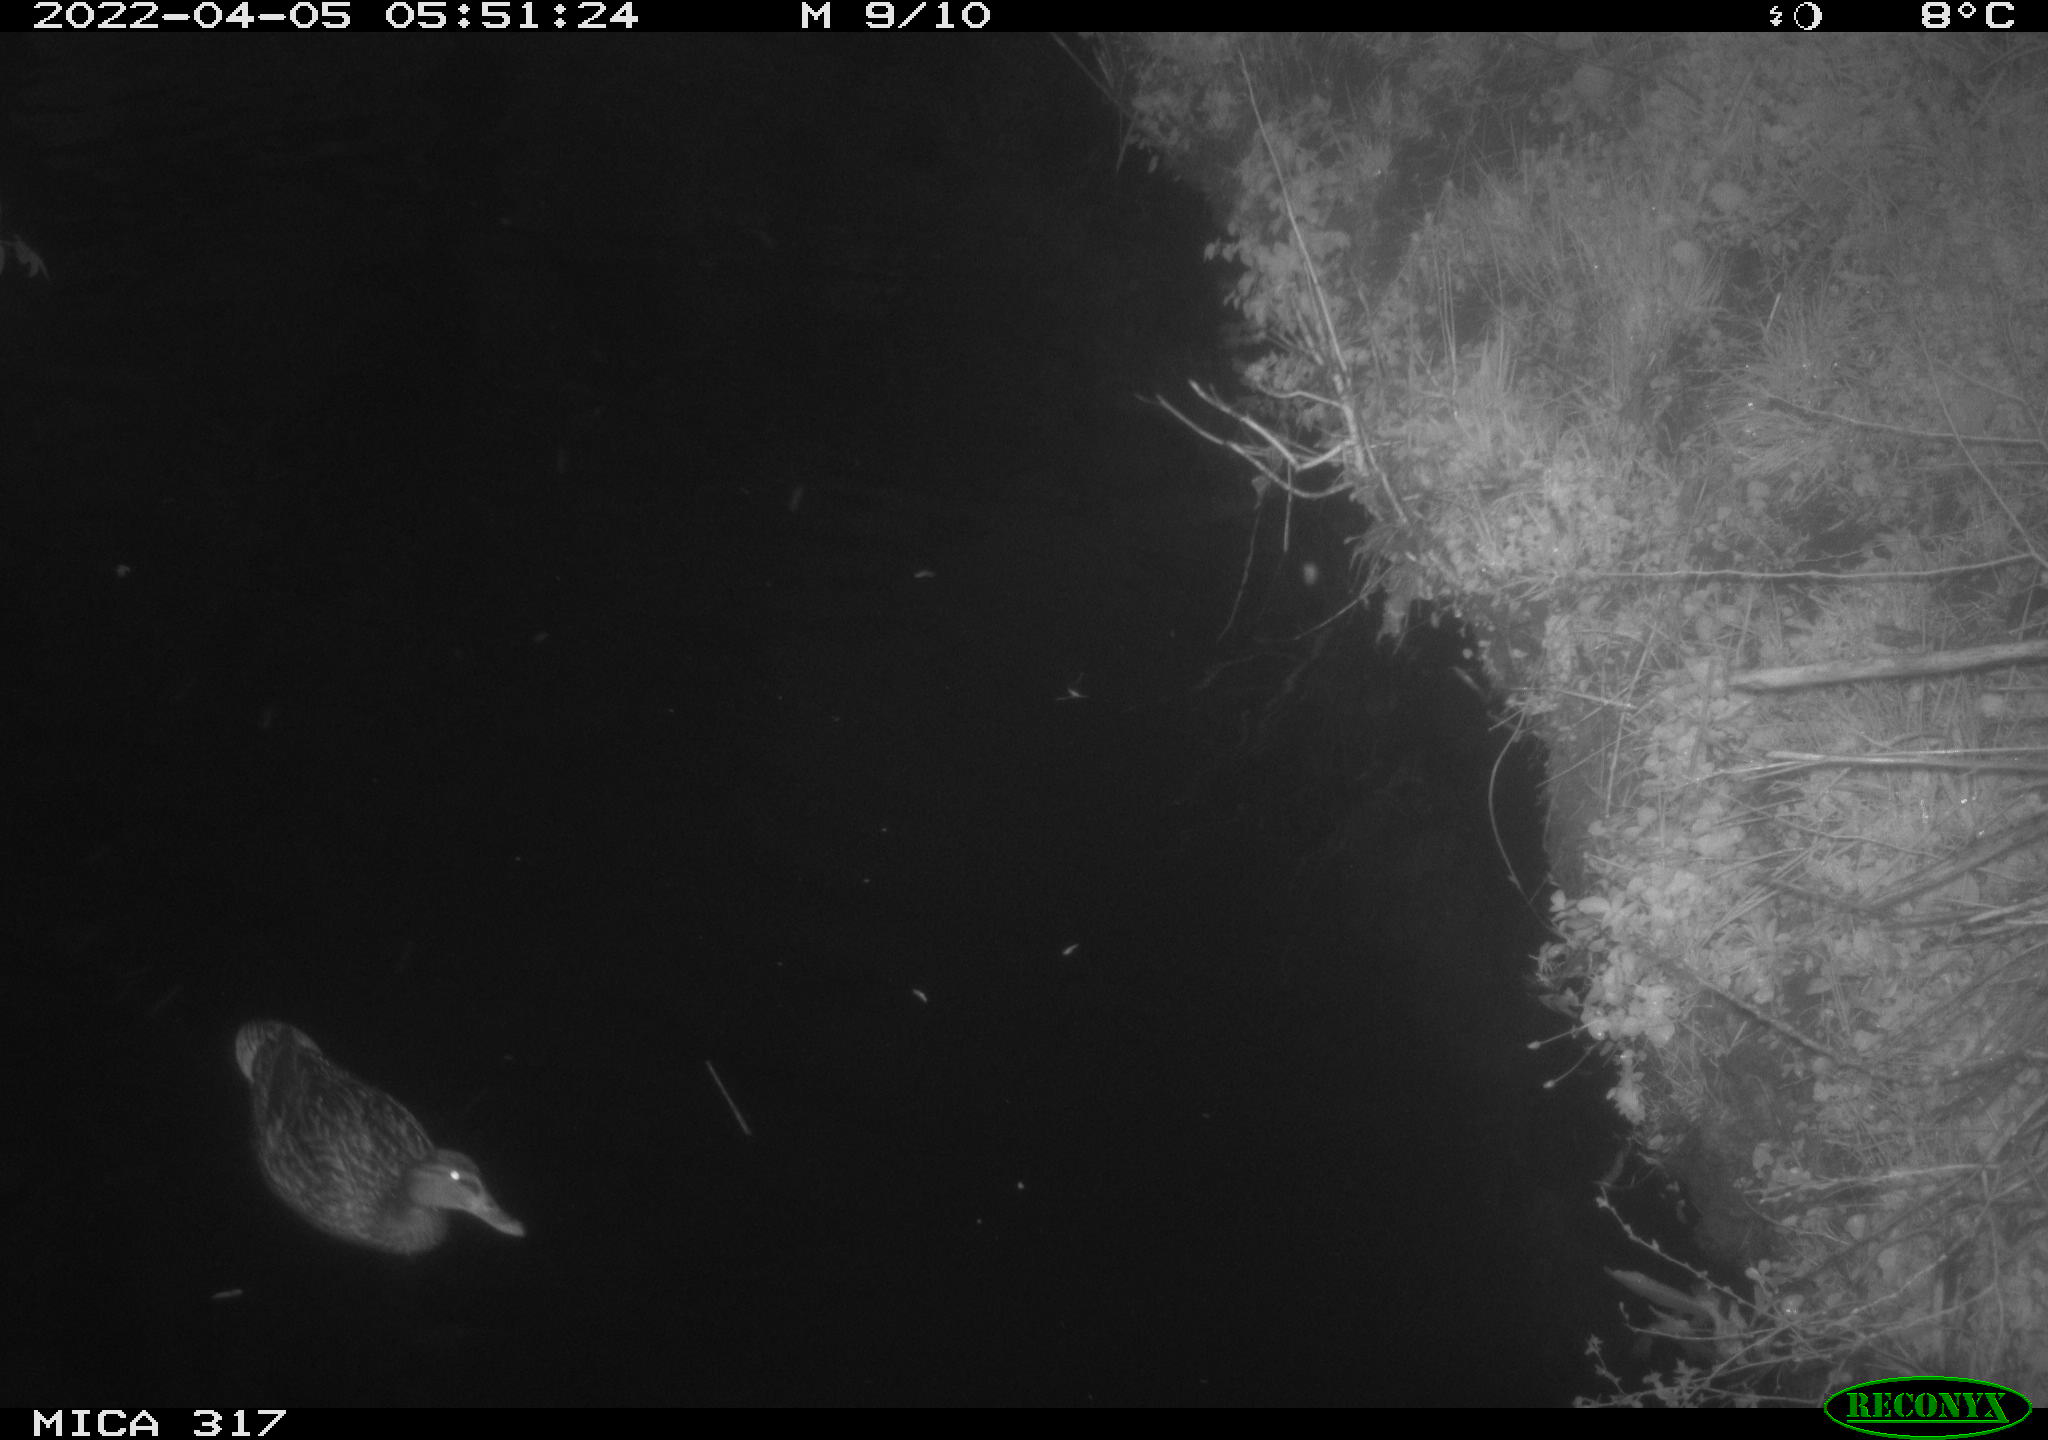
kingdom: Animalia
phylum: Chordata
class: Aves
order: Anseriformes
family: Anatidae
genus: Anas
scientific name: Anas platyrhynchos
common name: Mallard
